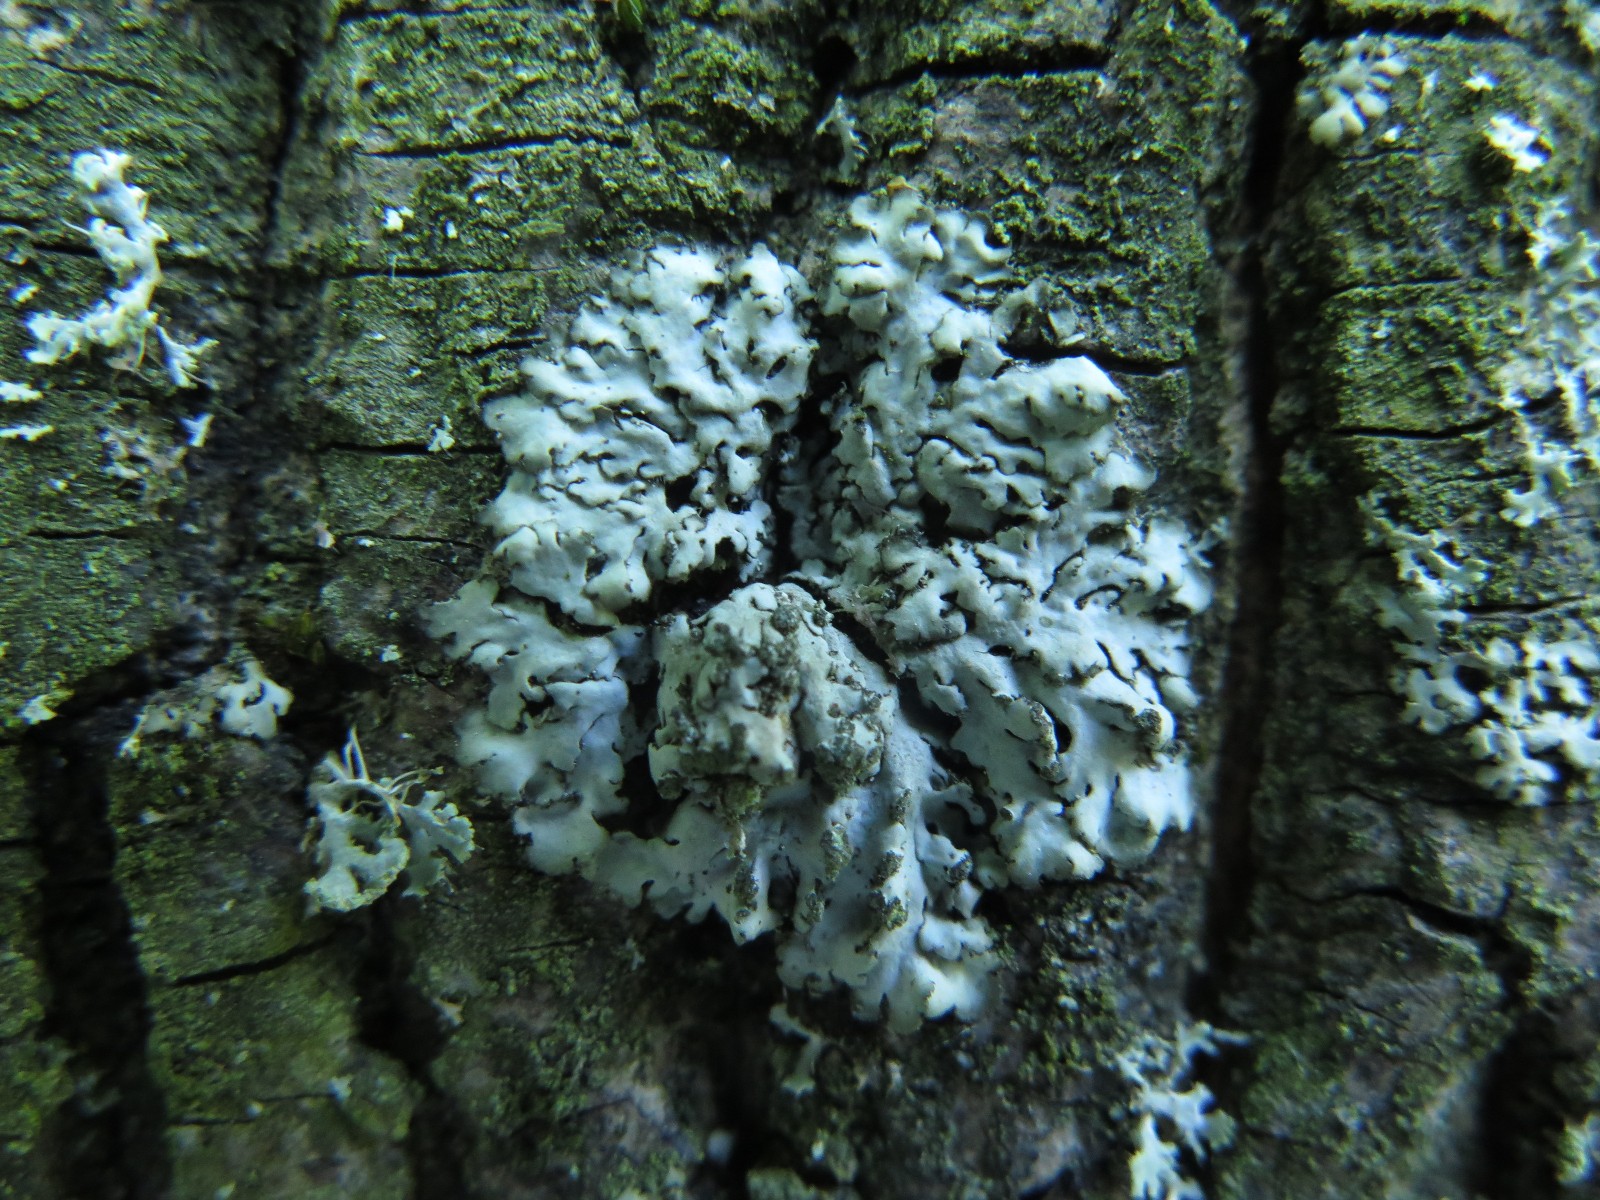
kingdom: Fungi
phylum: Ascomycota
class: Lecanoromycetes
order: Caliciales
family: Physciaceae
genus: Phaeophyscia
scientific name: Phaeophyscia orbicularis
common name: grågrøn rosetlav
